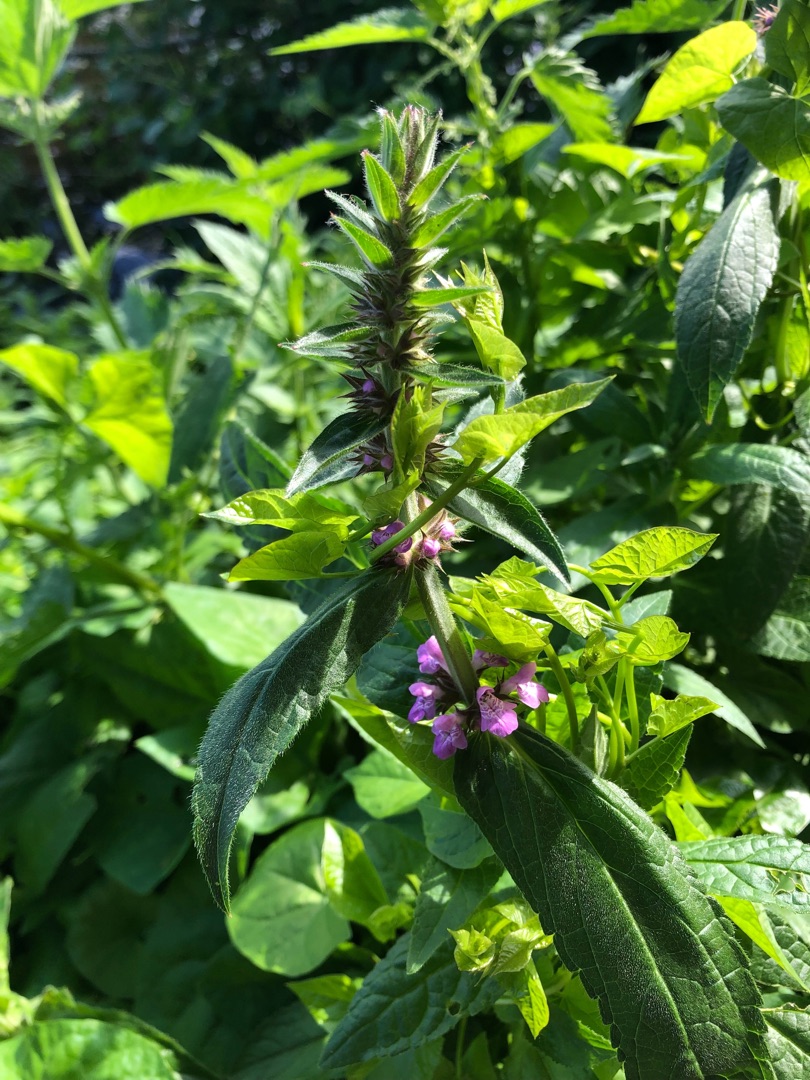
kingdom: Plantae
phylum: Tracheophyta
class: Magnoliopsida
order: Lamiales
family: Lamiaceae
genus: Stachys
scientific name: Stachys palustris
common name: Kær-galtetand
